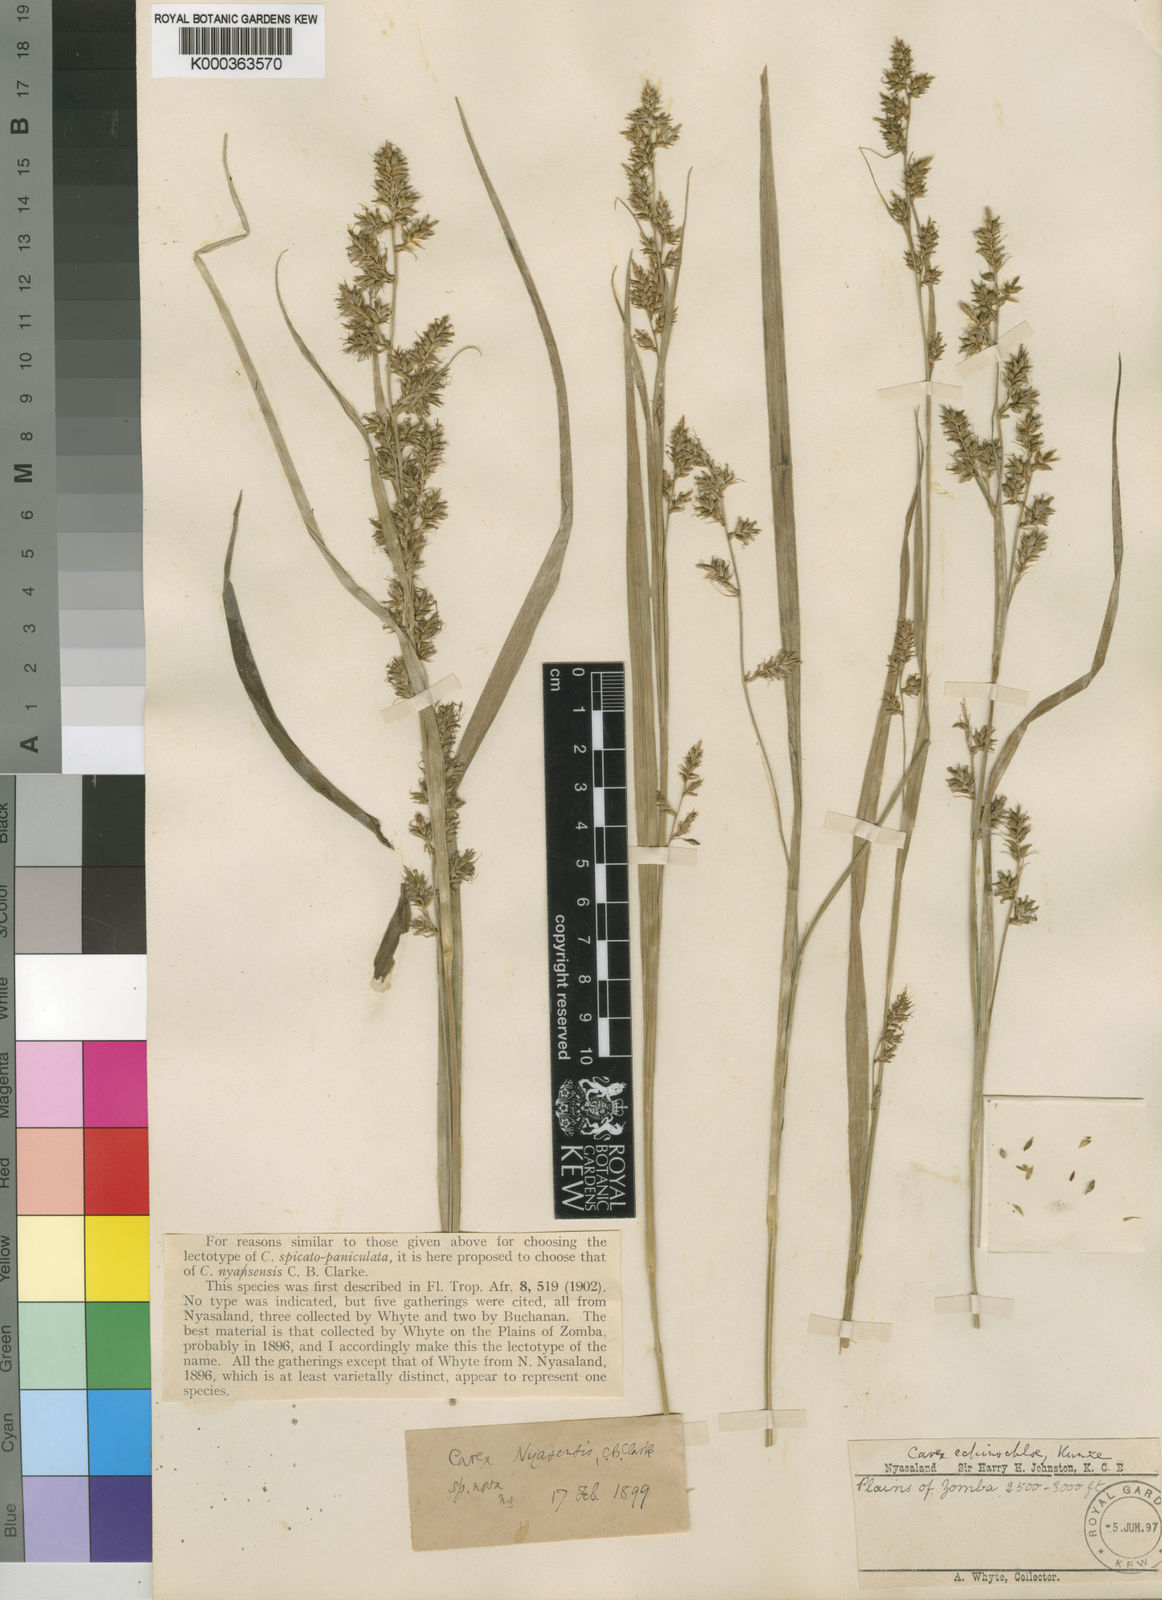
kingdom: Plantae
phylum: Tracheophyta
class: Liliopsida
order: Poales
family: Cyperaceae
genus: Carex
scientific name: Carex spicatopaniculata
